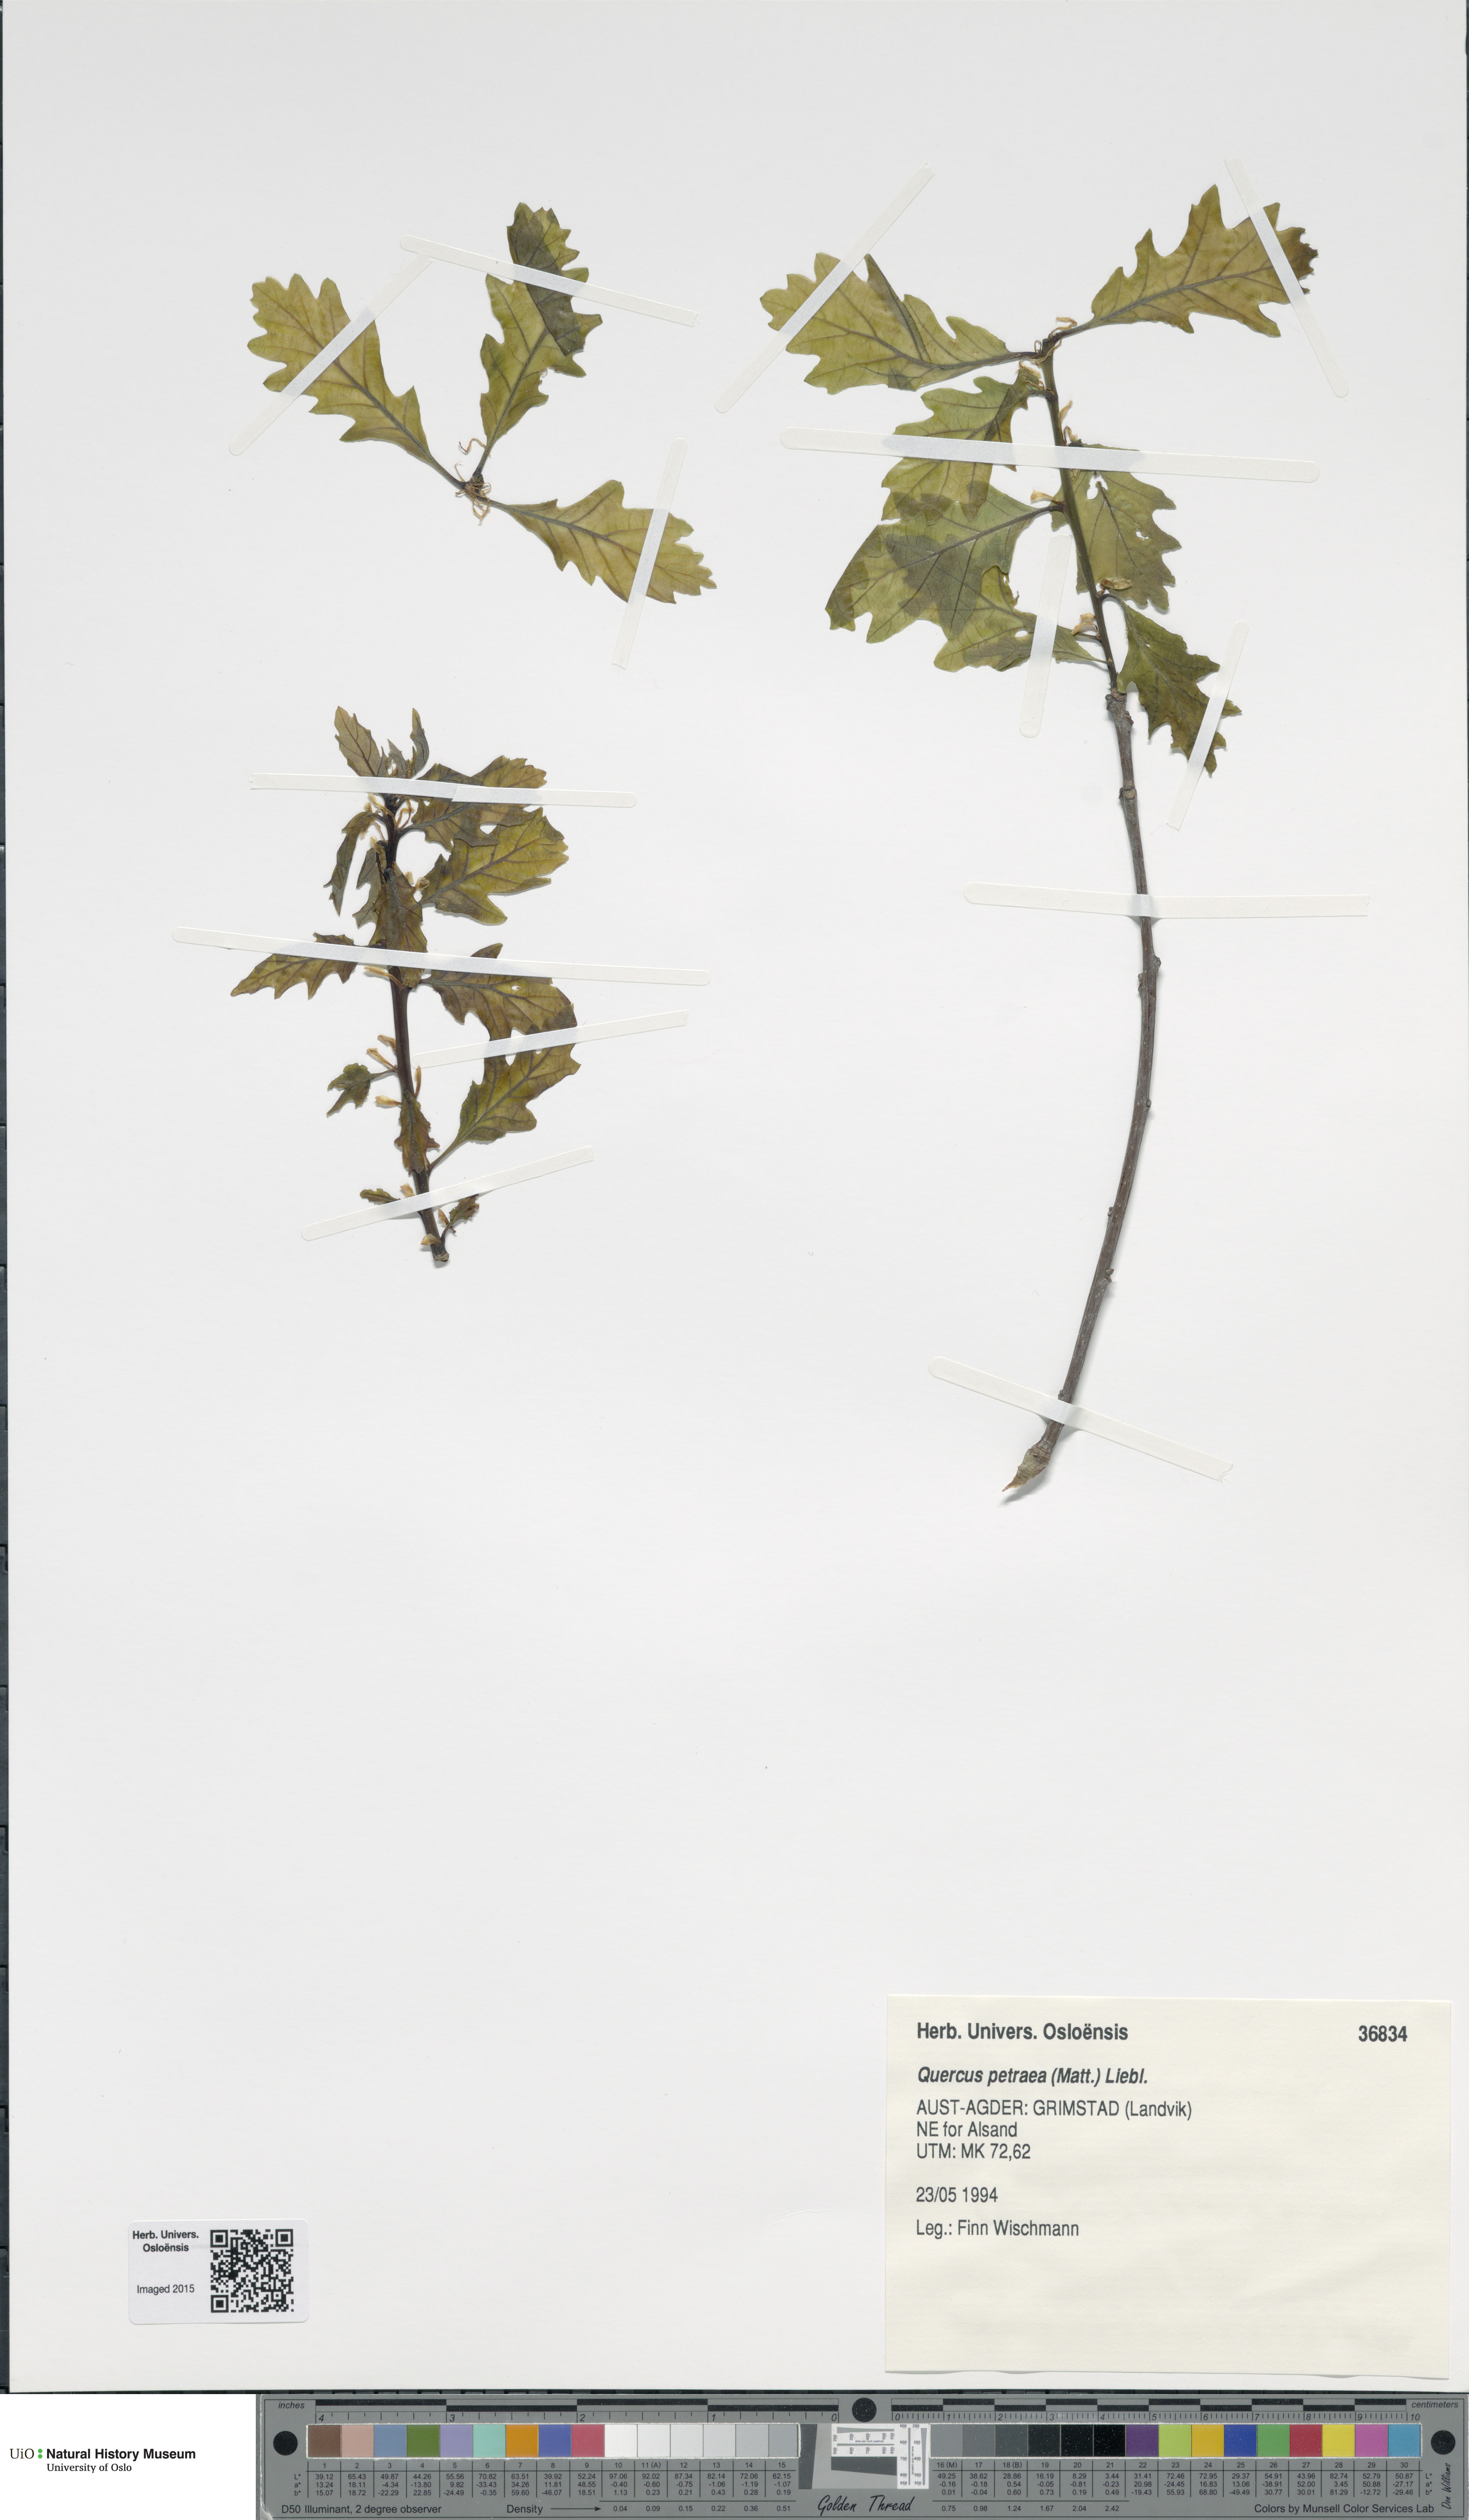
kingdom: Plantae
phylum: Tracheophyta
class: Magnoliopsida
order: Fagales
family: Fagaceae
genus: Quercus
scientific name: Quercus petraea
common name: Sessile oak
